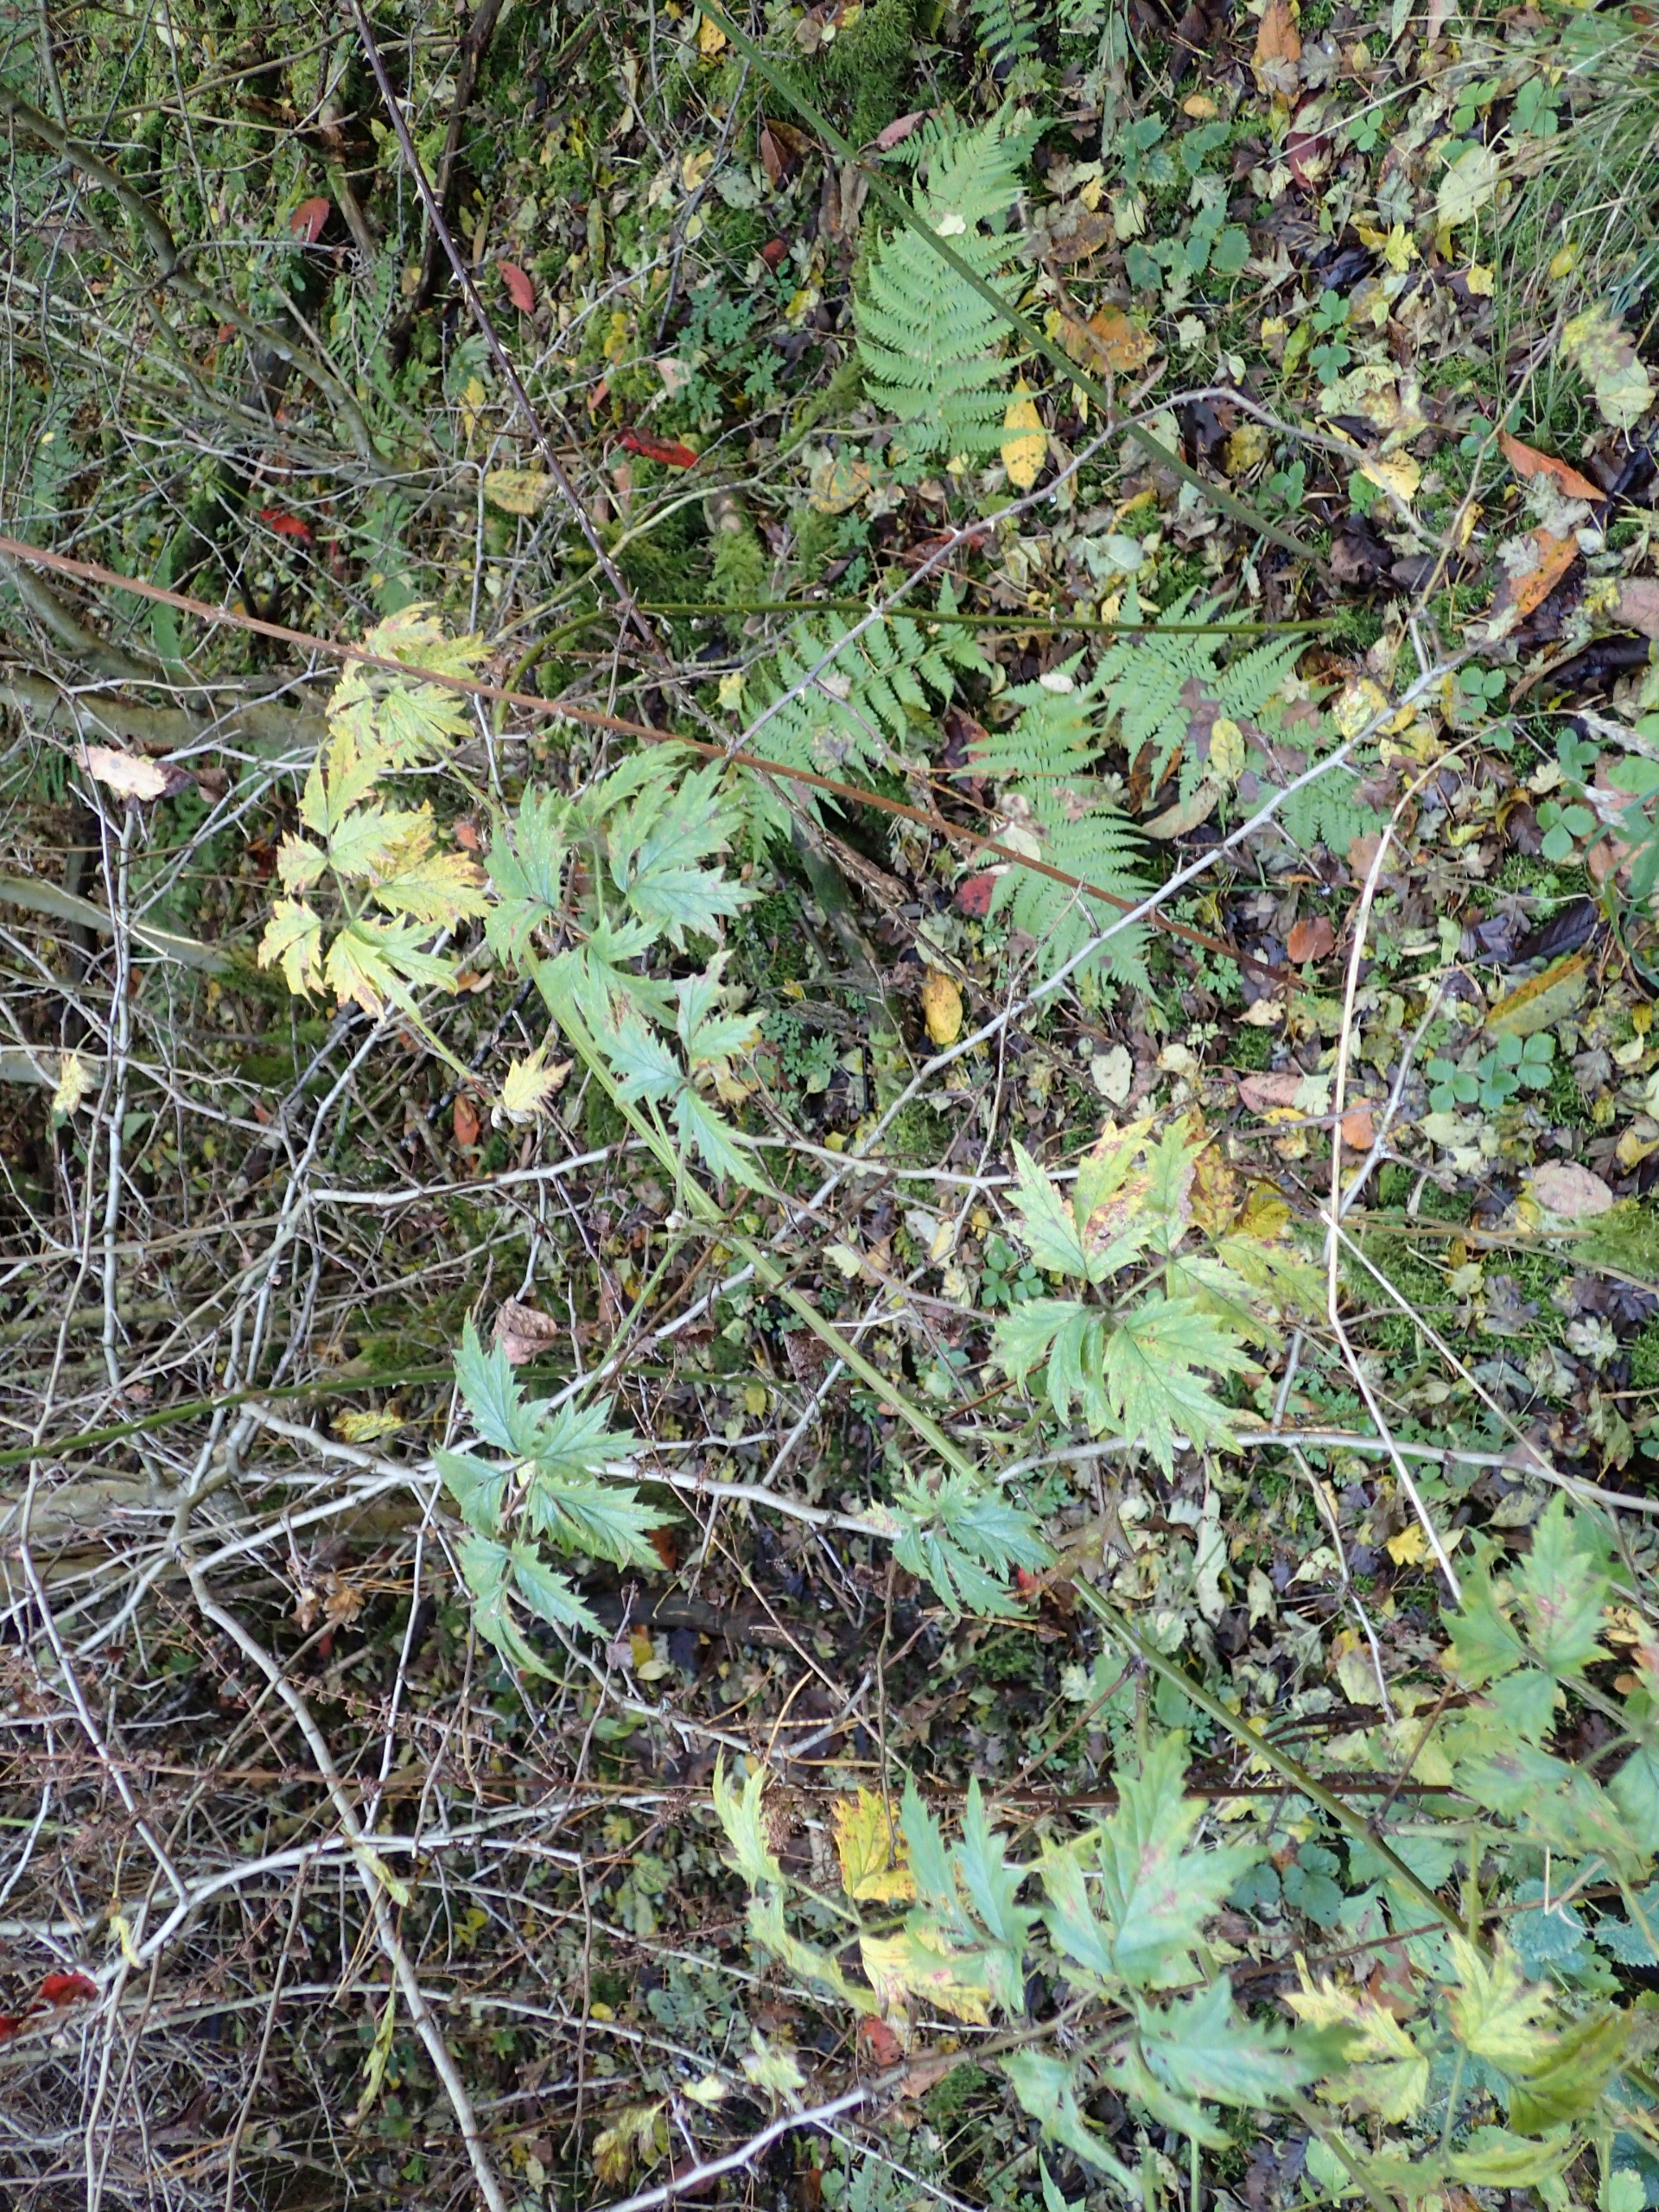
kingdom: Plantae
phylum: Tracheophyta
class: Magnoliopsida
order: Rosales
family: Rosaceae
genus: Rubus
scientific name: Rubus laciniatus
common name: Fliget brombær
